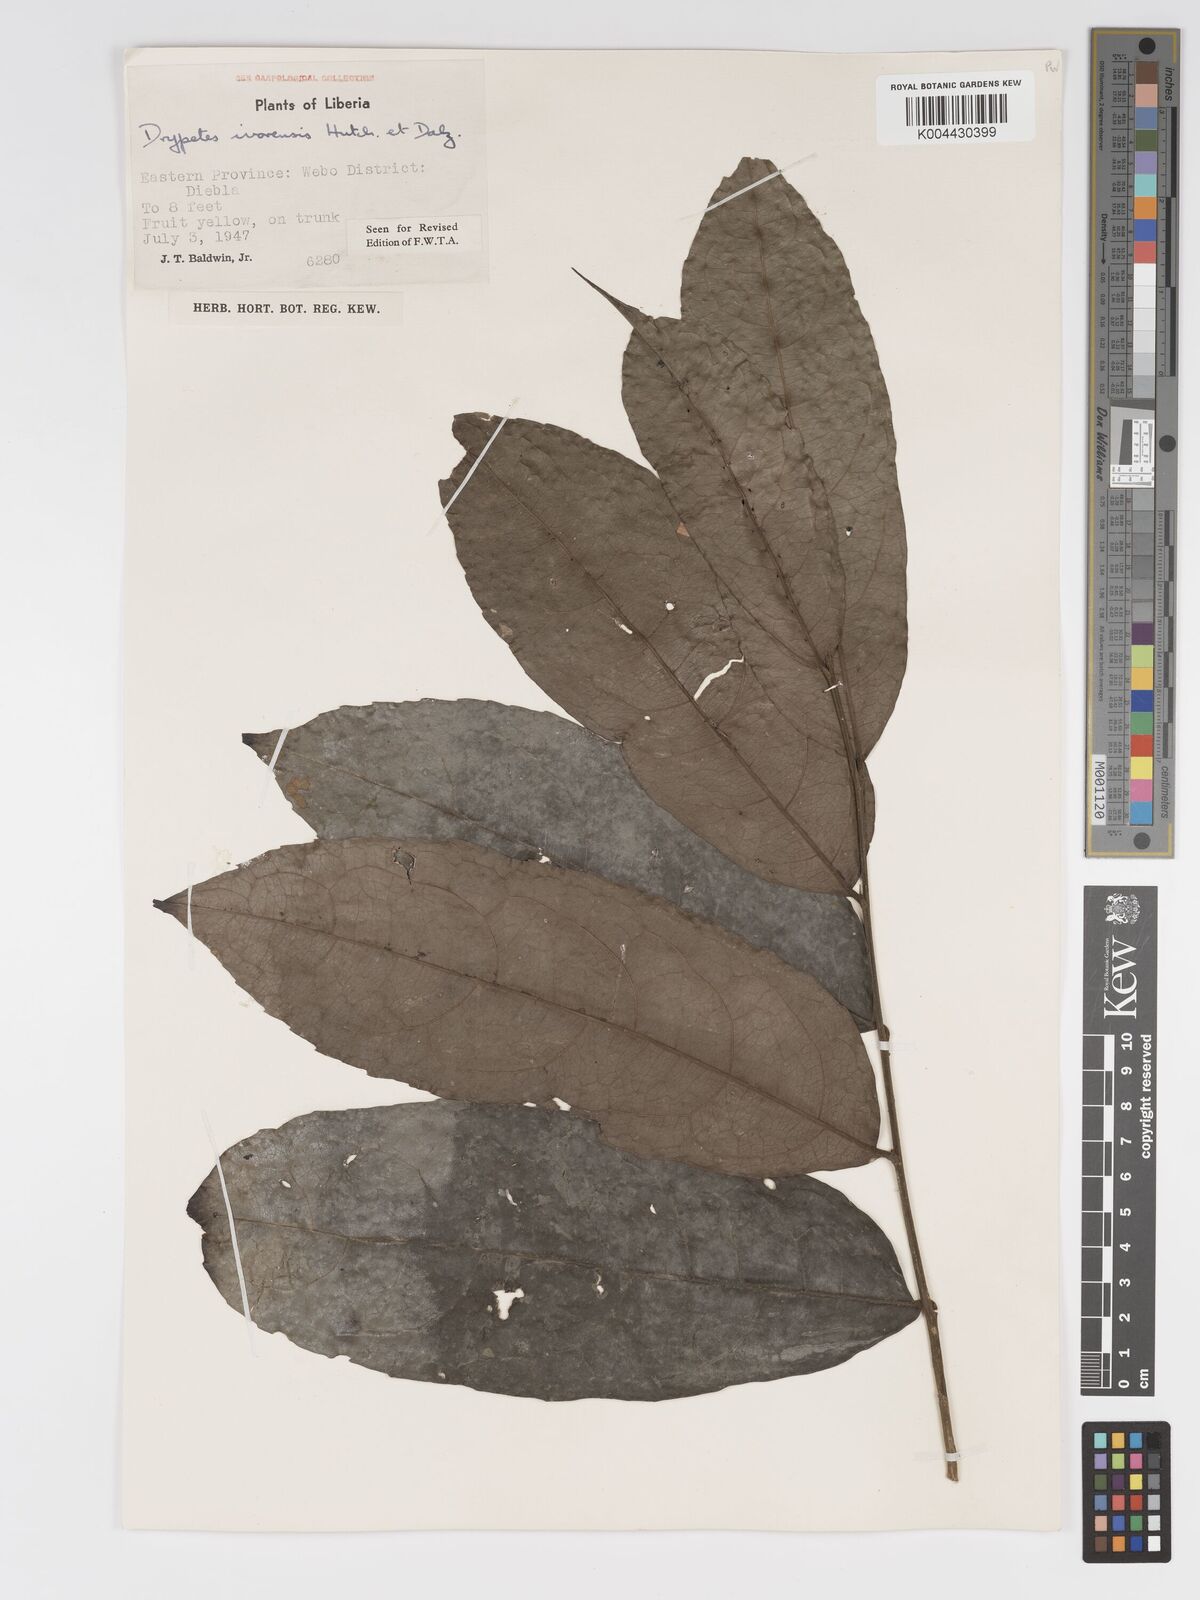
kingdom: Plantae
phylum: Tracheophyta
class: Magnoliopsida
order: Malpighiales
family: Putranjivaceae
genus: Drypetes
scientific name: Drypetes ivorensis
